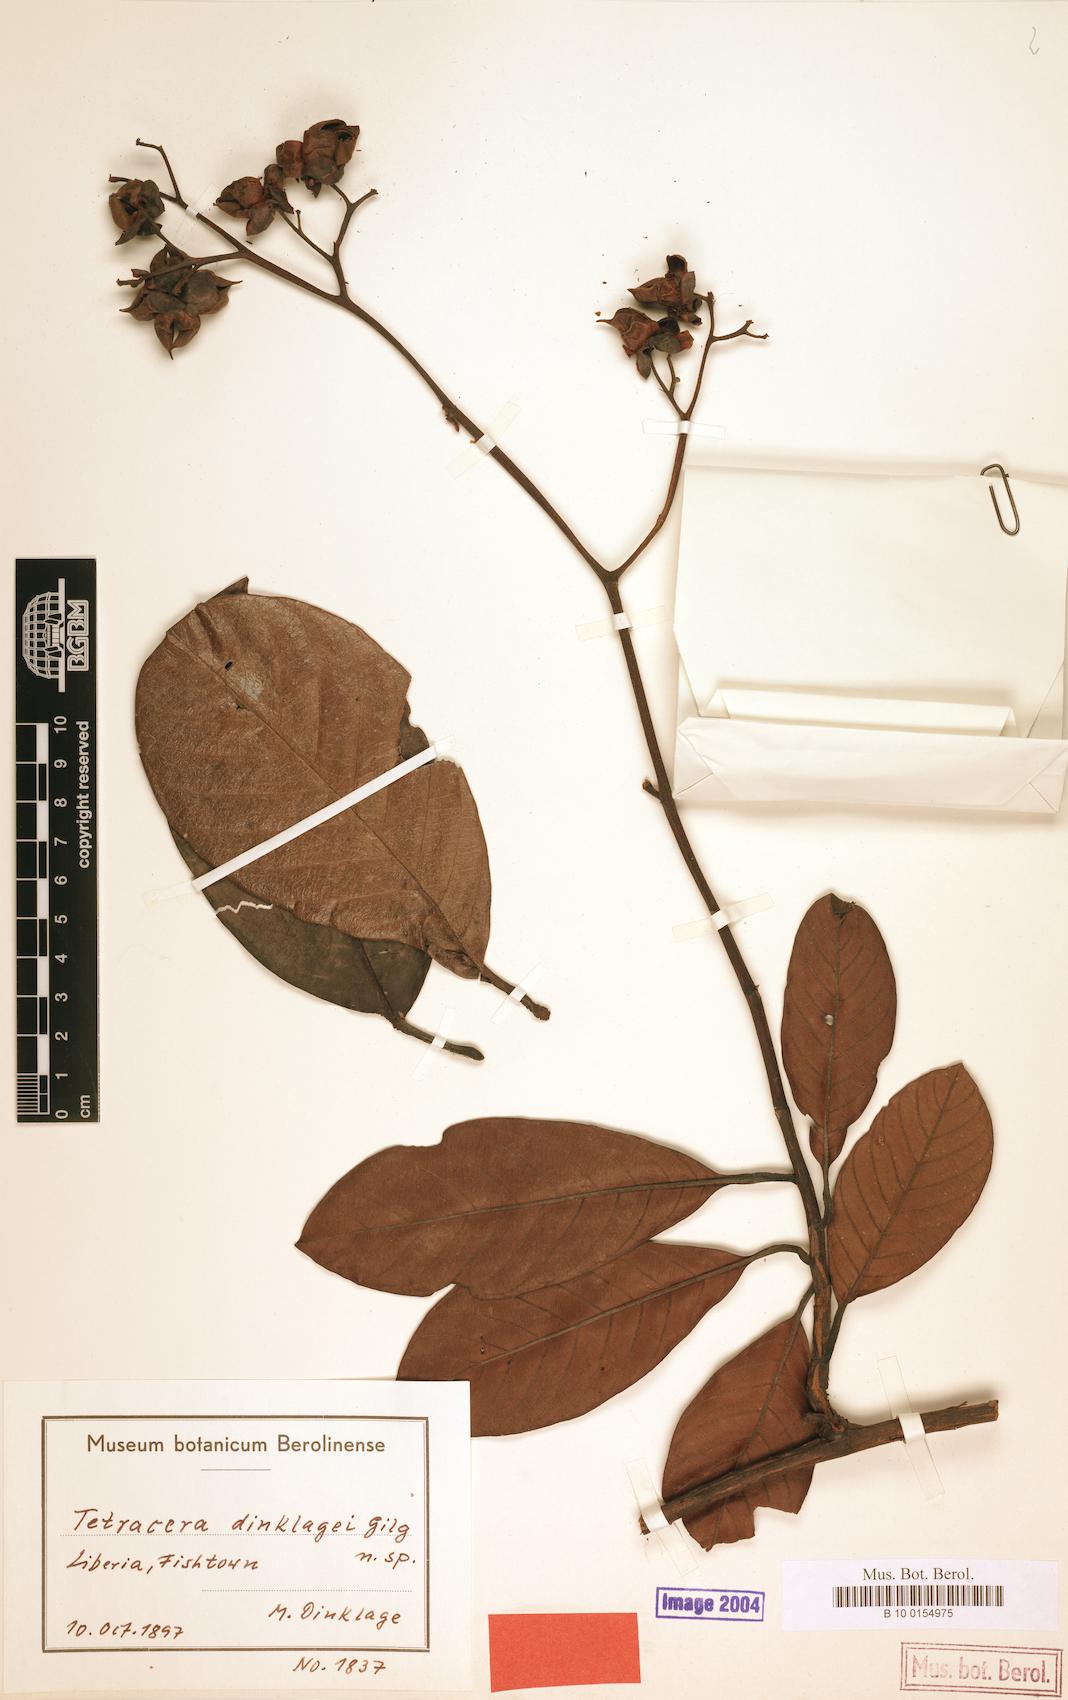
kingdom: Plantae
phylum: Tracheophyta
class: Magnoliopsida
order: Dilleniales
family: Dilleniaceae
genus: Tetracera
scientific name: Tetracera alnifolia
